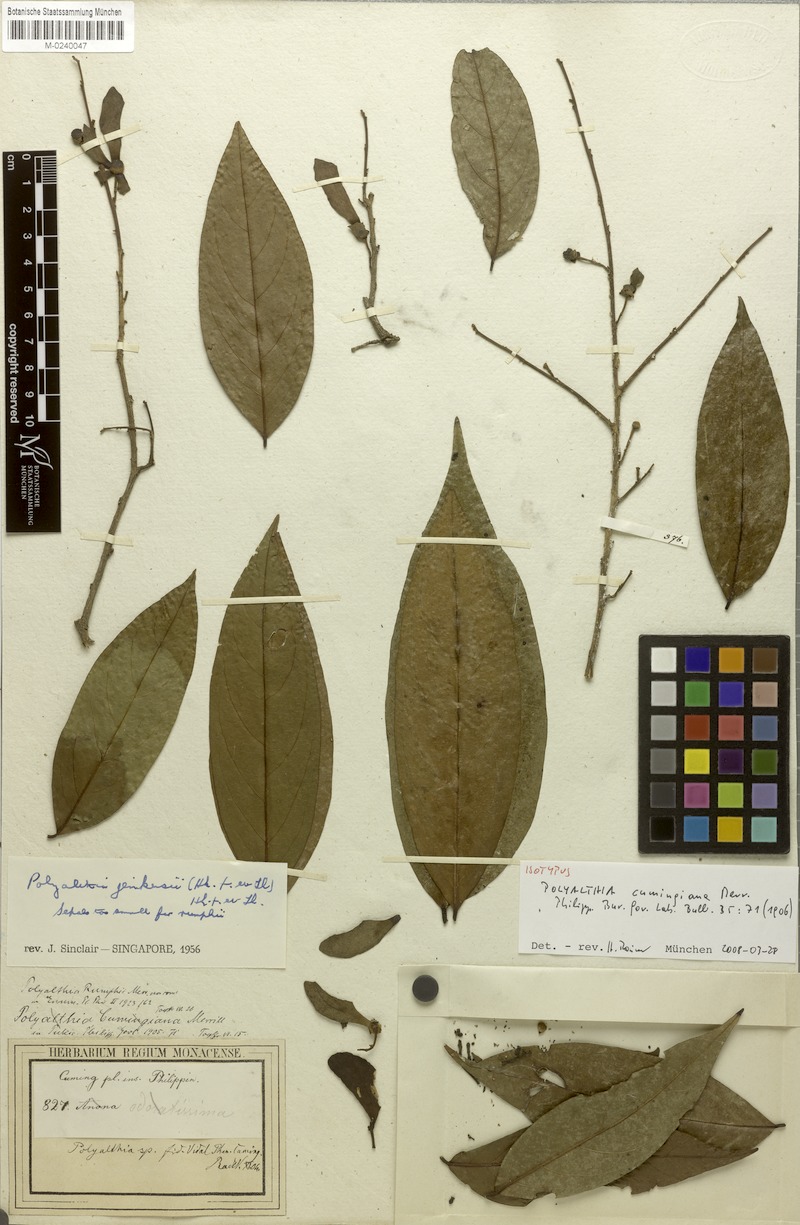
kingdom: Plantae
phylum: Tracheophyta
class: Magnoliopsida
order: Magnoliales
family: Annonaceae
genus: Hubera
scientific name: Hubera jenkinsii
